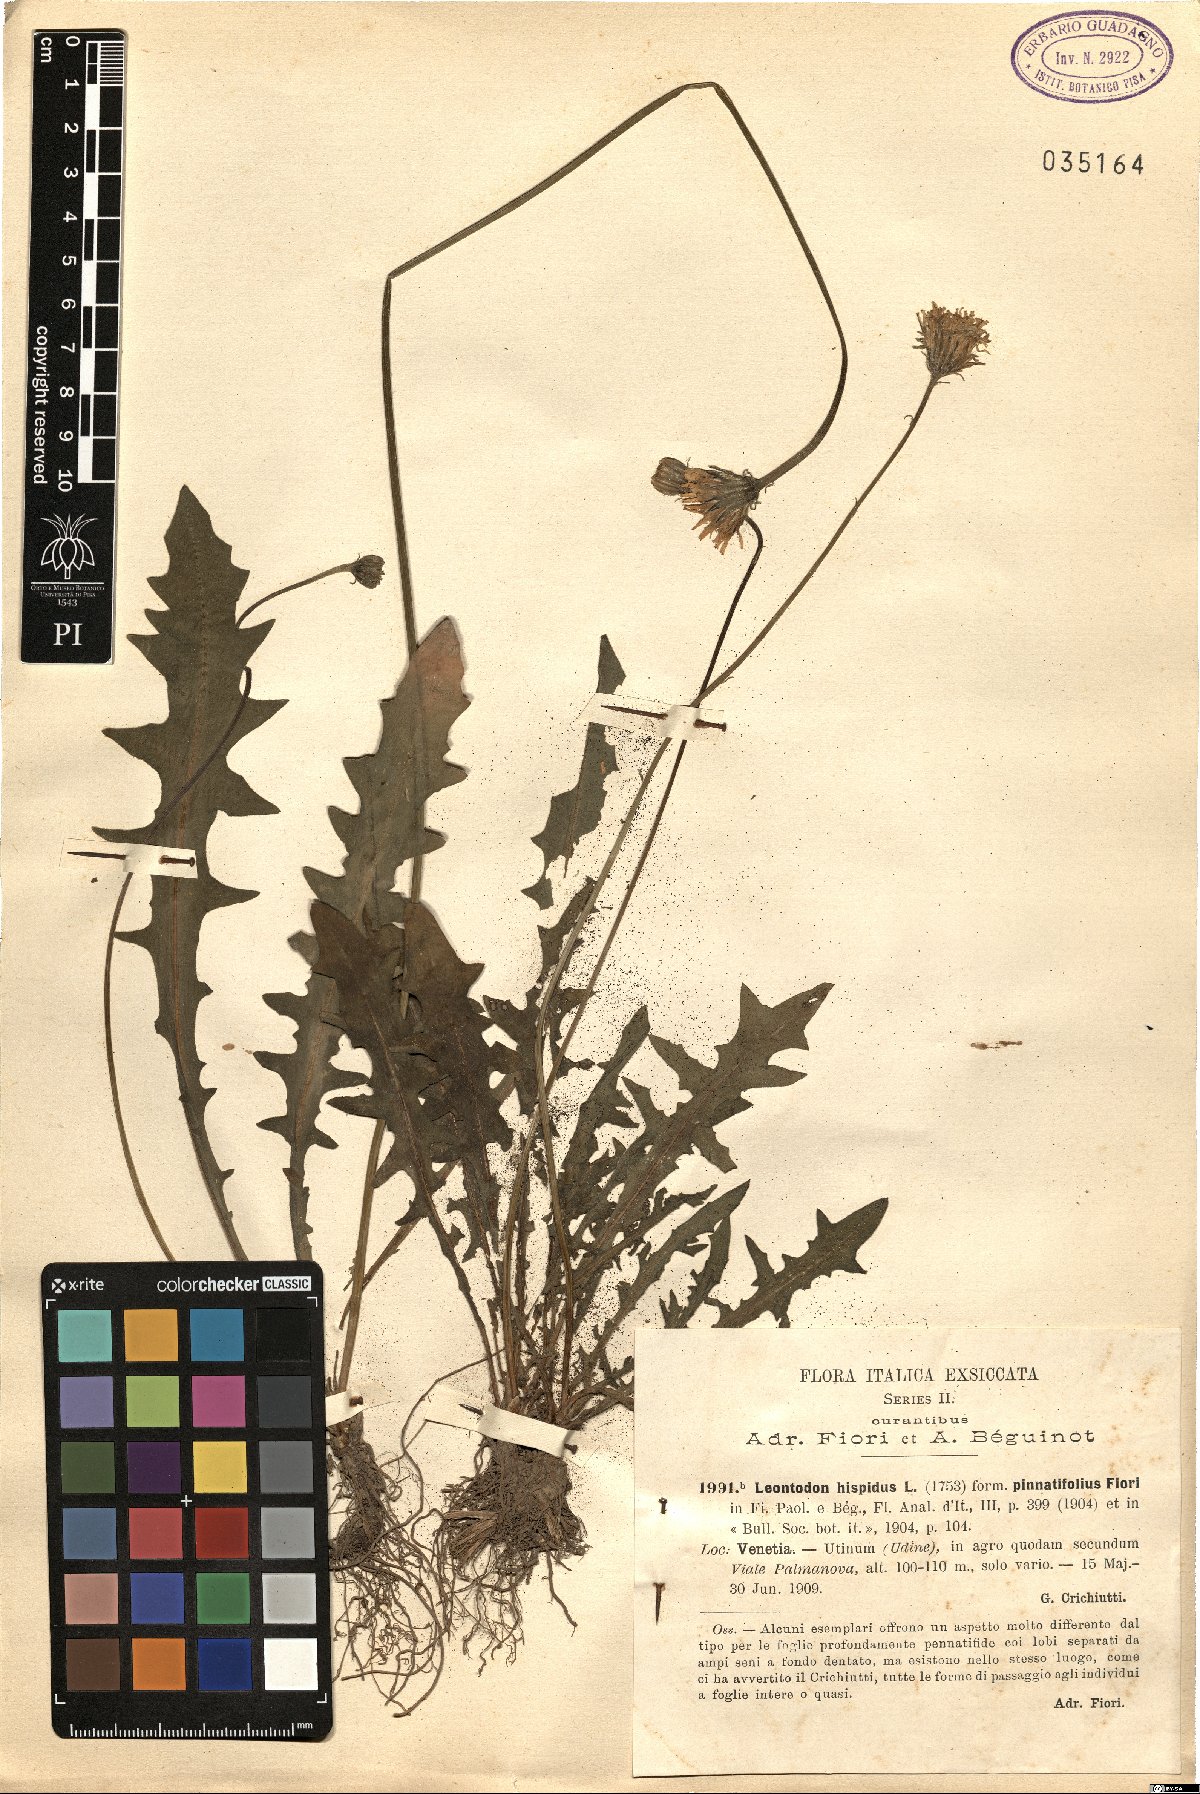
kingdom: Plantae
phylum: Tracheophyta
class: Magnoliopsida
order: Asterales
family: Asteraceae
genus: Leontodon
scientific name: Leontodon hispidus
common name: Rough hawkbit
